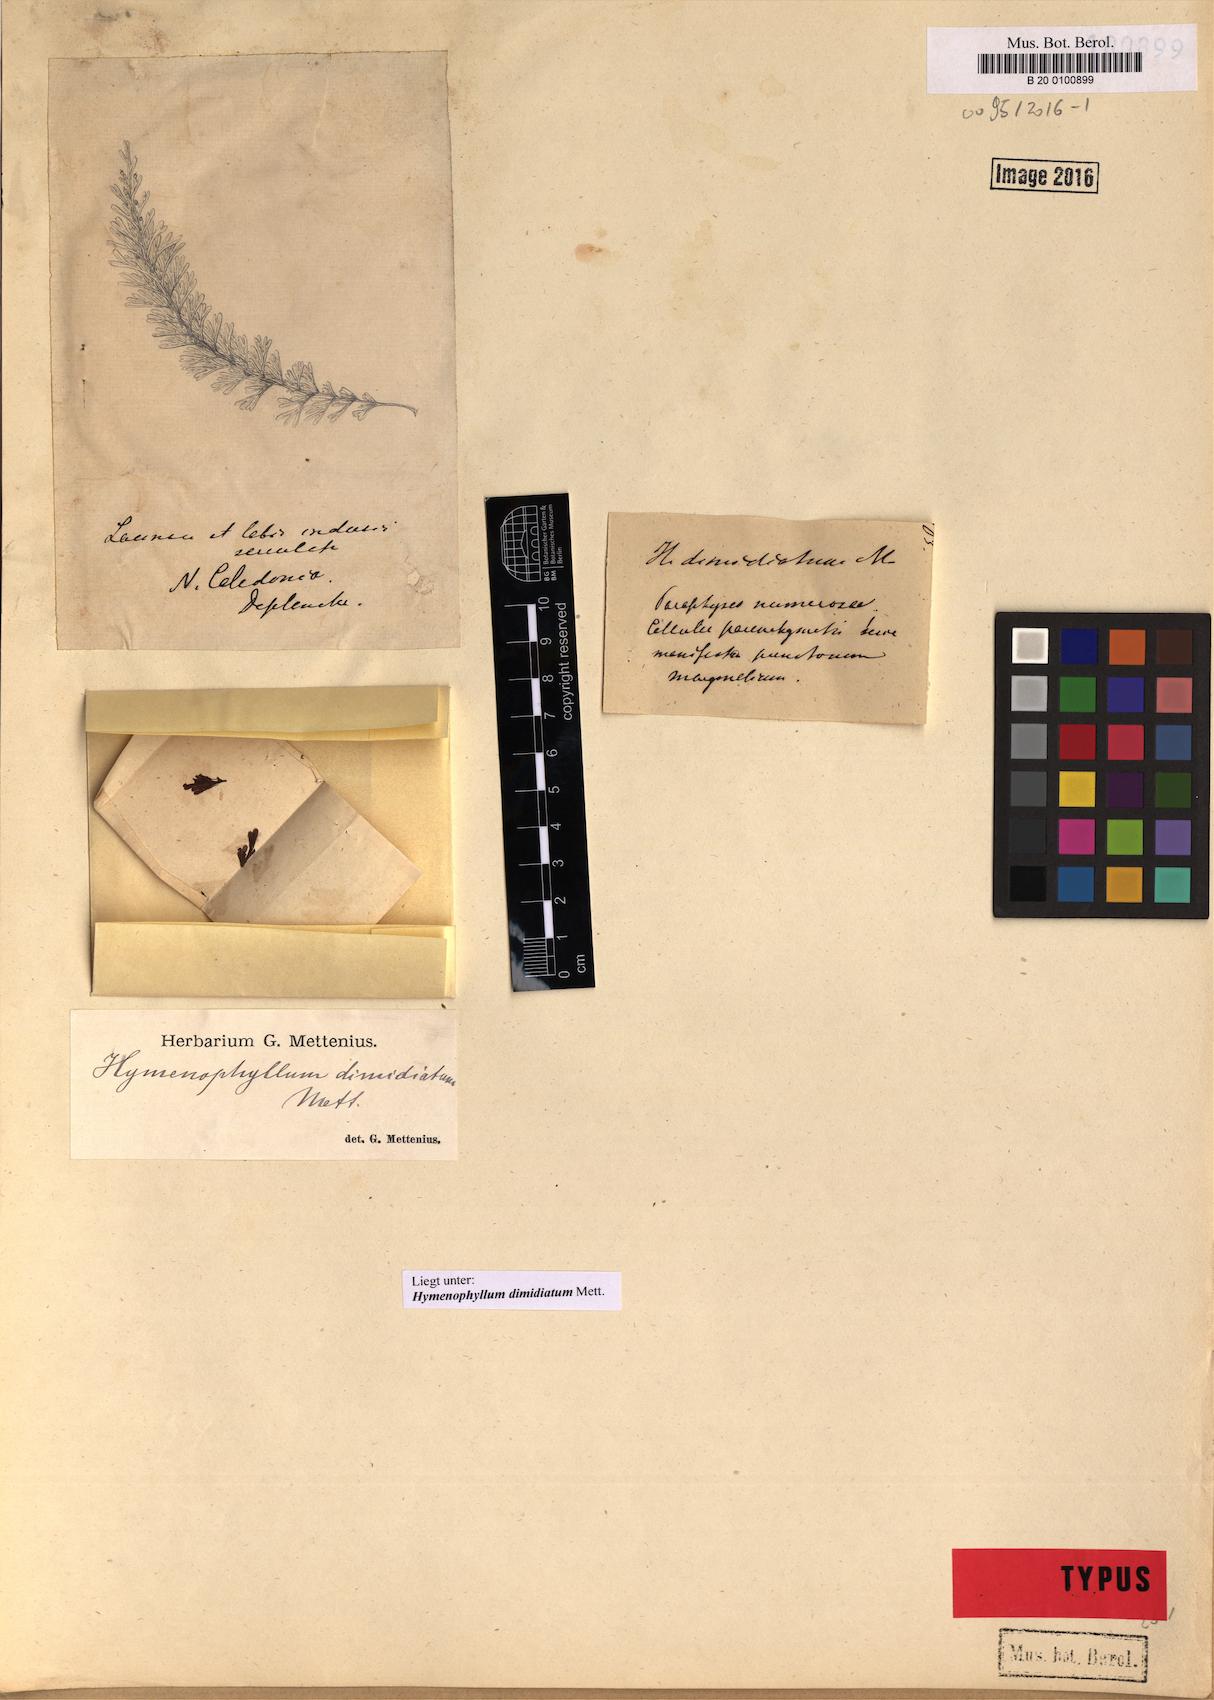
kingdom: Plantae
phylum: Tracheophyta
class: Polypodiopsida
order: Hymenophyllales
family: Hymenophyllaceae
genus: Hymenophyllum
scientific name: Hymenophyllum dimidiatum
